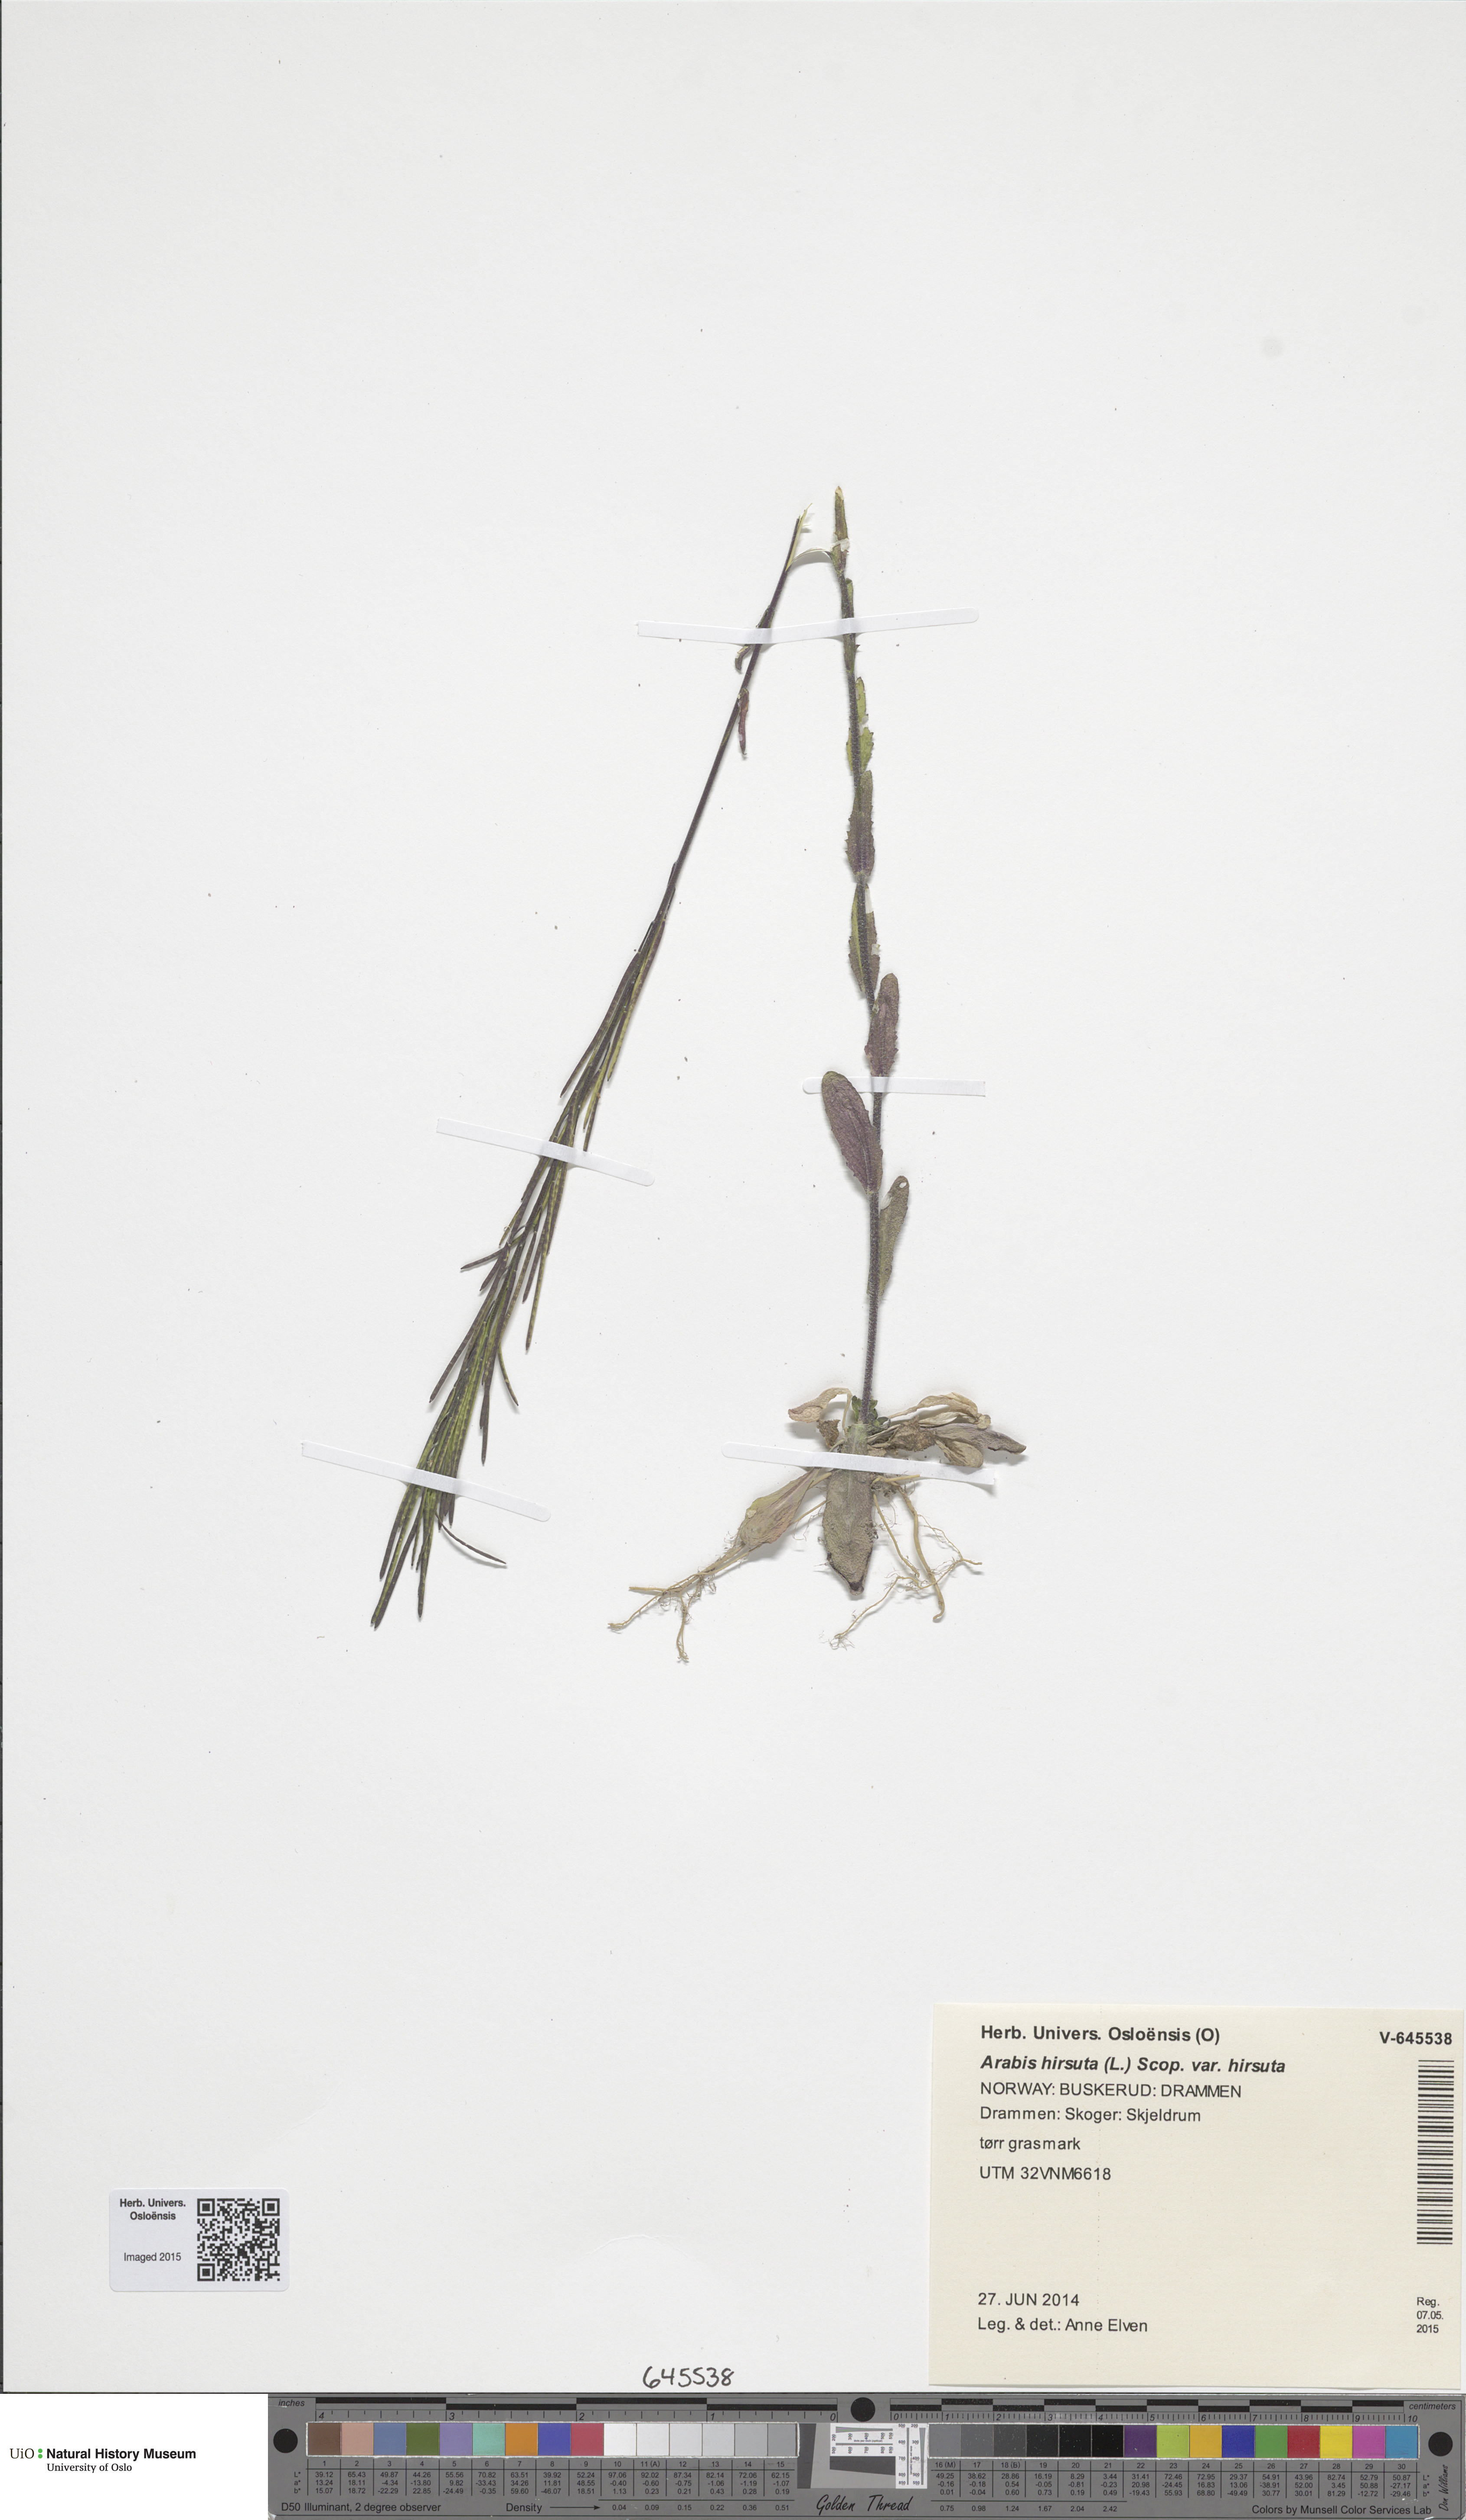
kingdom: Plantae
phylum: Tracheophyta
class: Magnoliopsida
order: Brassicales
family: Brassicaceae
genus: Arabis
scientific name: Arabis hirsuta
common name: Hairy rock-cress
